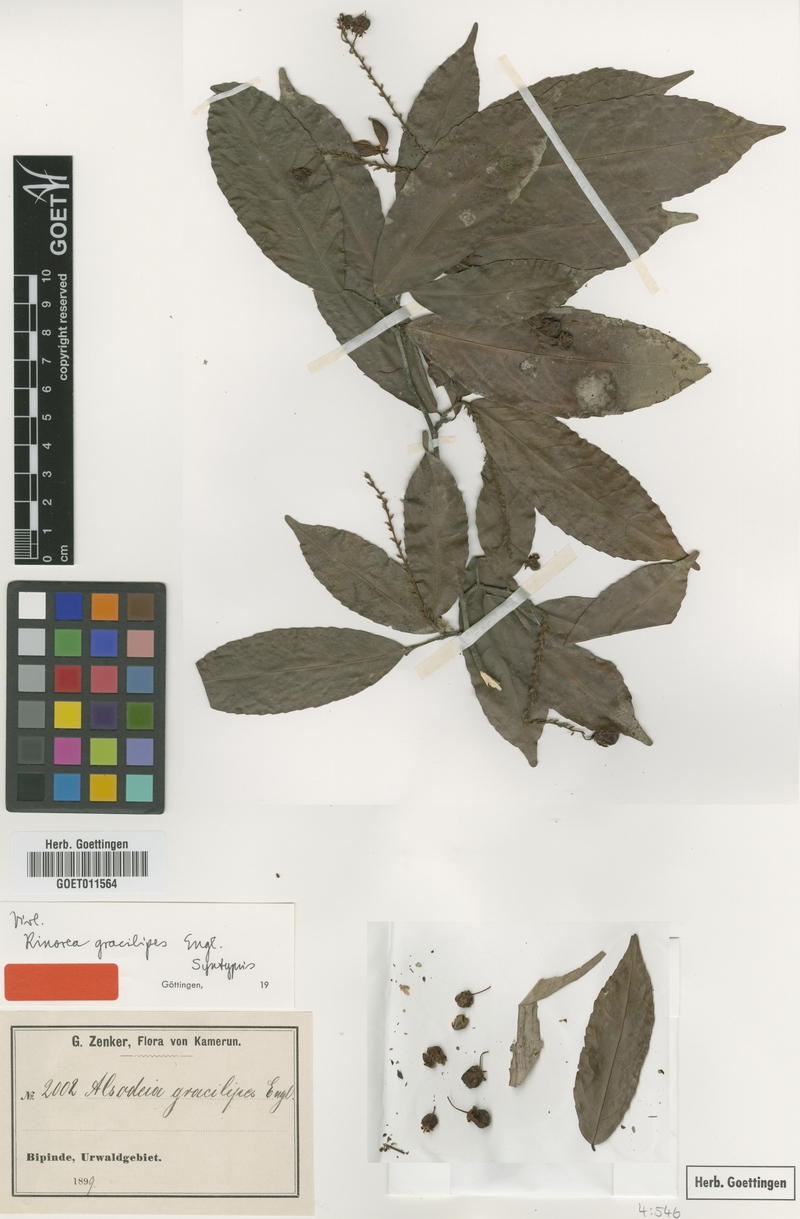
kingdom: Plantae
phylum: Tracheophyta
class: Magnoliopsida
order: Malpighiales
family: Violaceae
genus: Rinorea
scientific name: Rinorea angustifolia
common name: White violet-bush
